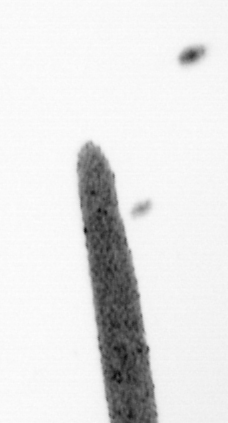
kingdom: Animalia
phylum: Arthropoda
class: Copepoda
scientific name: Copepoda
